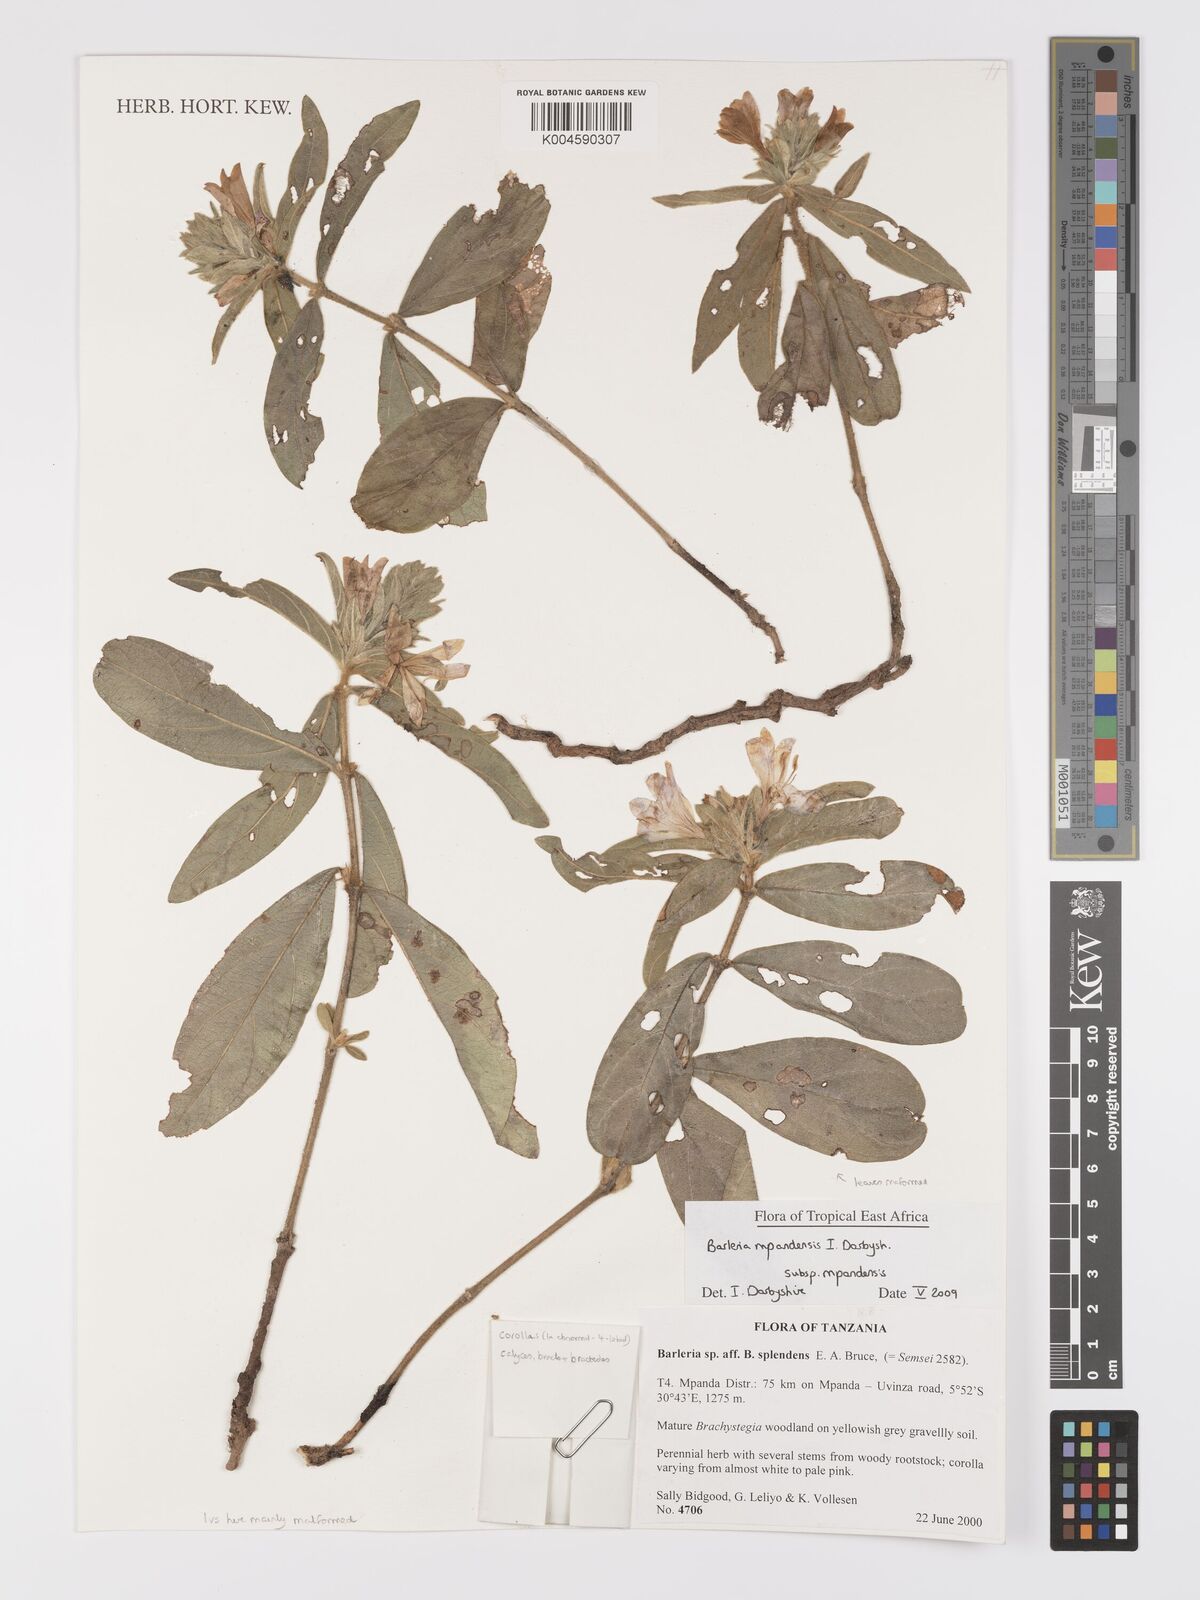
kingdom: Plantae
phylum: Tracheophyta
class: Magnoliopsida
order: Lamiales
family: Acanthaceae
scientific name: Acanthaceae
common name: Acanthaceae
